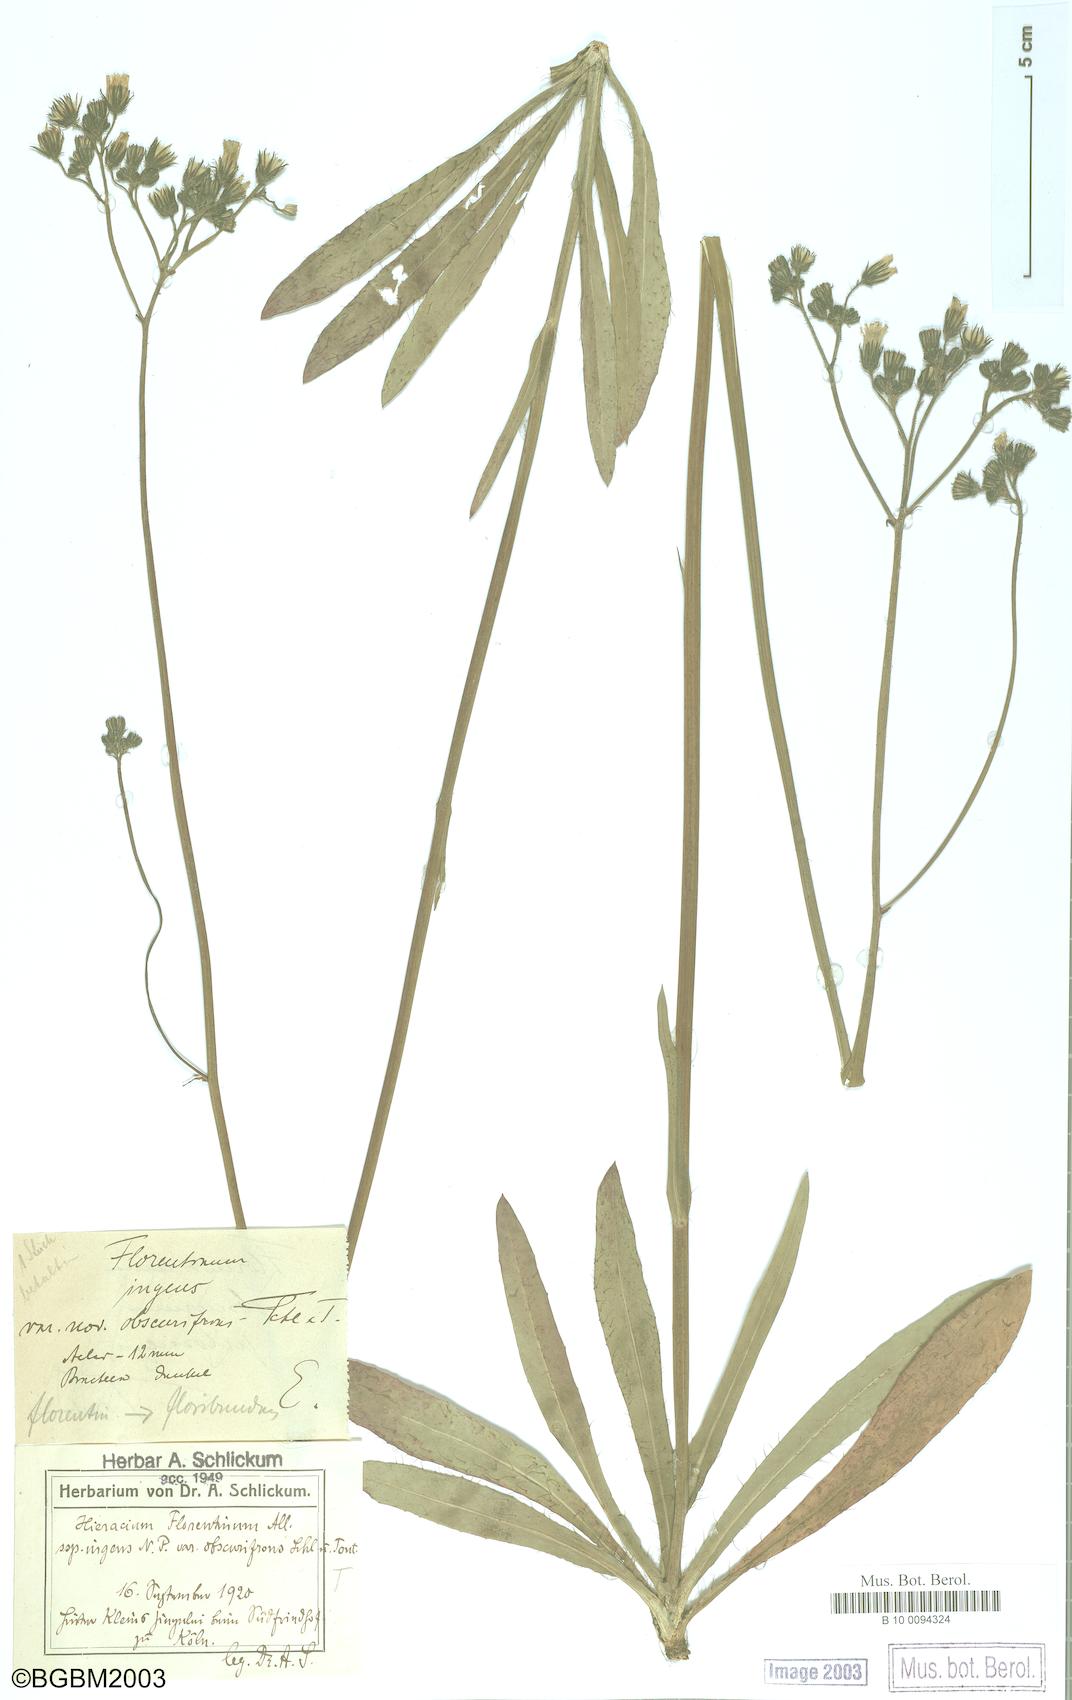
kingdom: Plantae
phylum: Tracheophyta
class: Magnoliopsida
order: Asterales
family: Asteraceae
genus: Hieracium
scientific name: Hieracium florentinum
